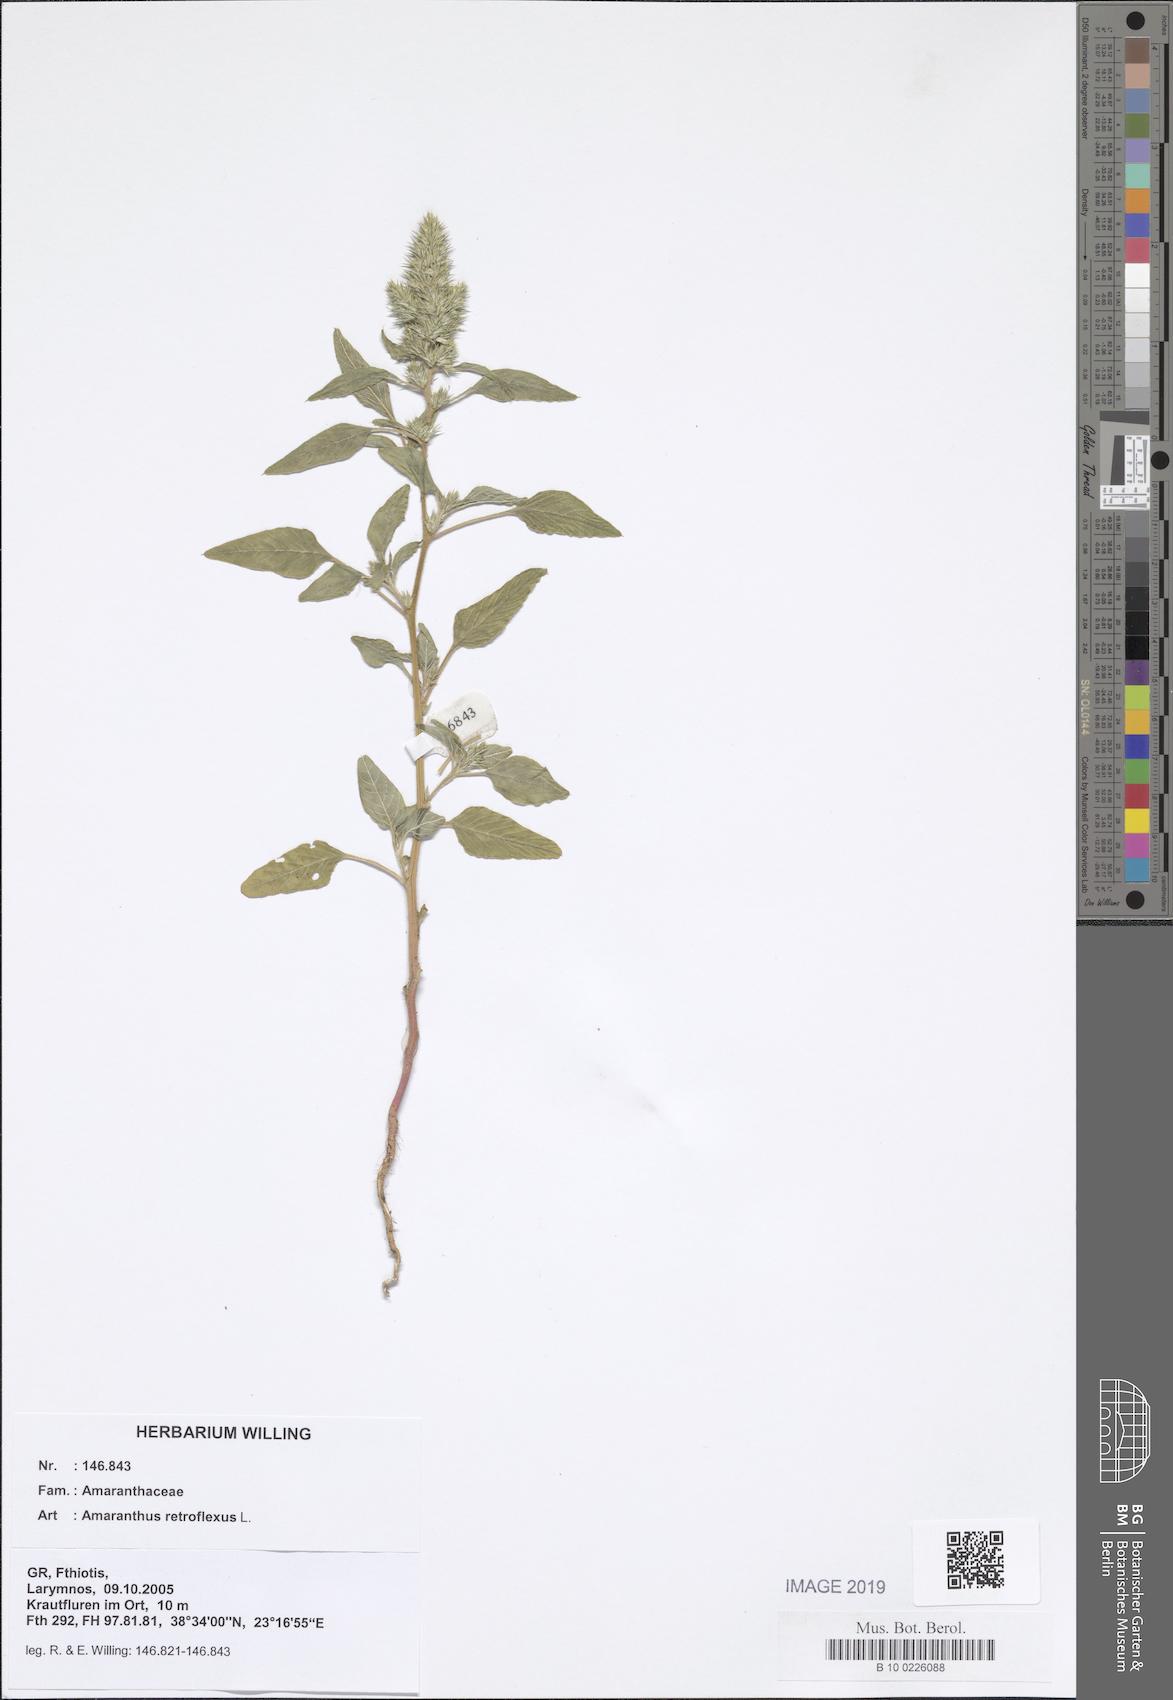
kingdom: Plantae
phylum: Tracheophyta
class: Magnoliopsida
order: Caryophyllales
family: Amaranthaceae
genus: Amaranthus
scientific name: Amaranthus retroflexus
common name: Redroot amaranth
